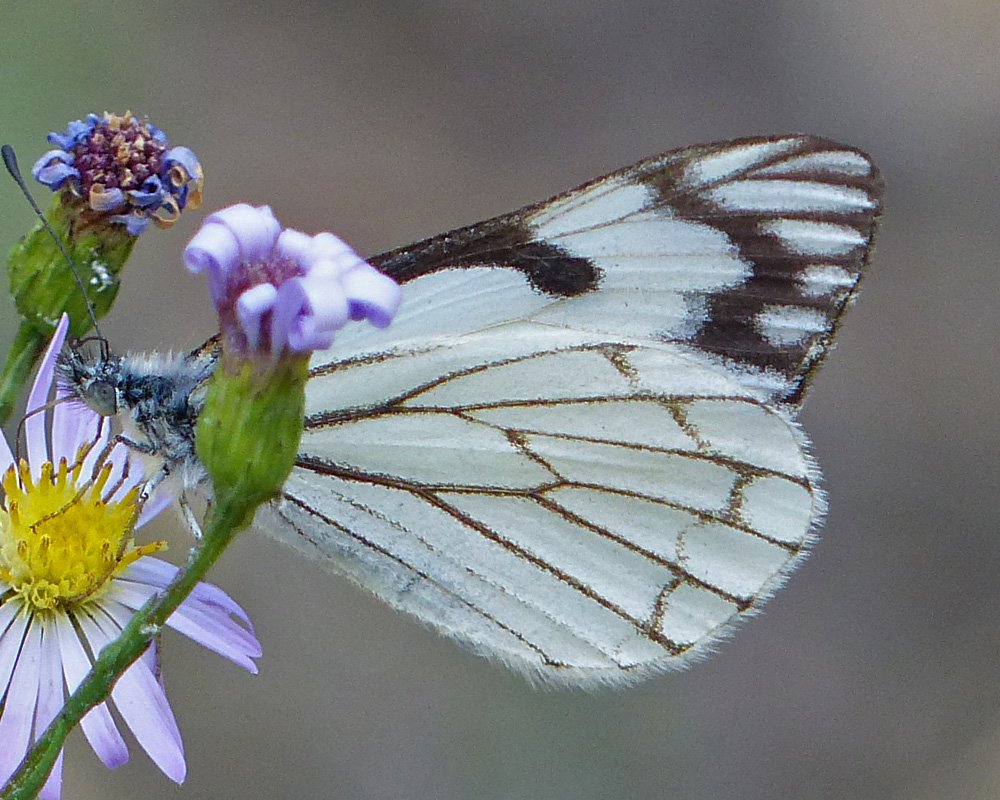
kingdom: Animalia
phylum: Arthropoda
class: Insecta
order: Lepidoptera
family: Pieridae
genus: Neophasia
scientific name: Neophasia menapia
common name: Pine White
